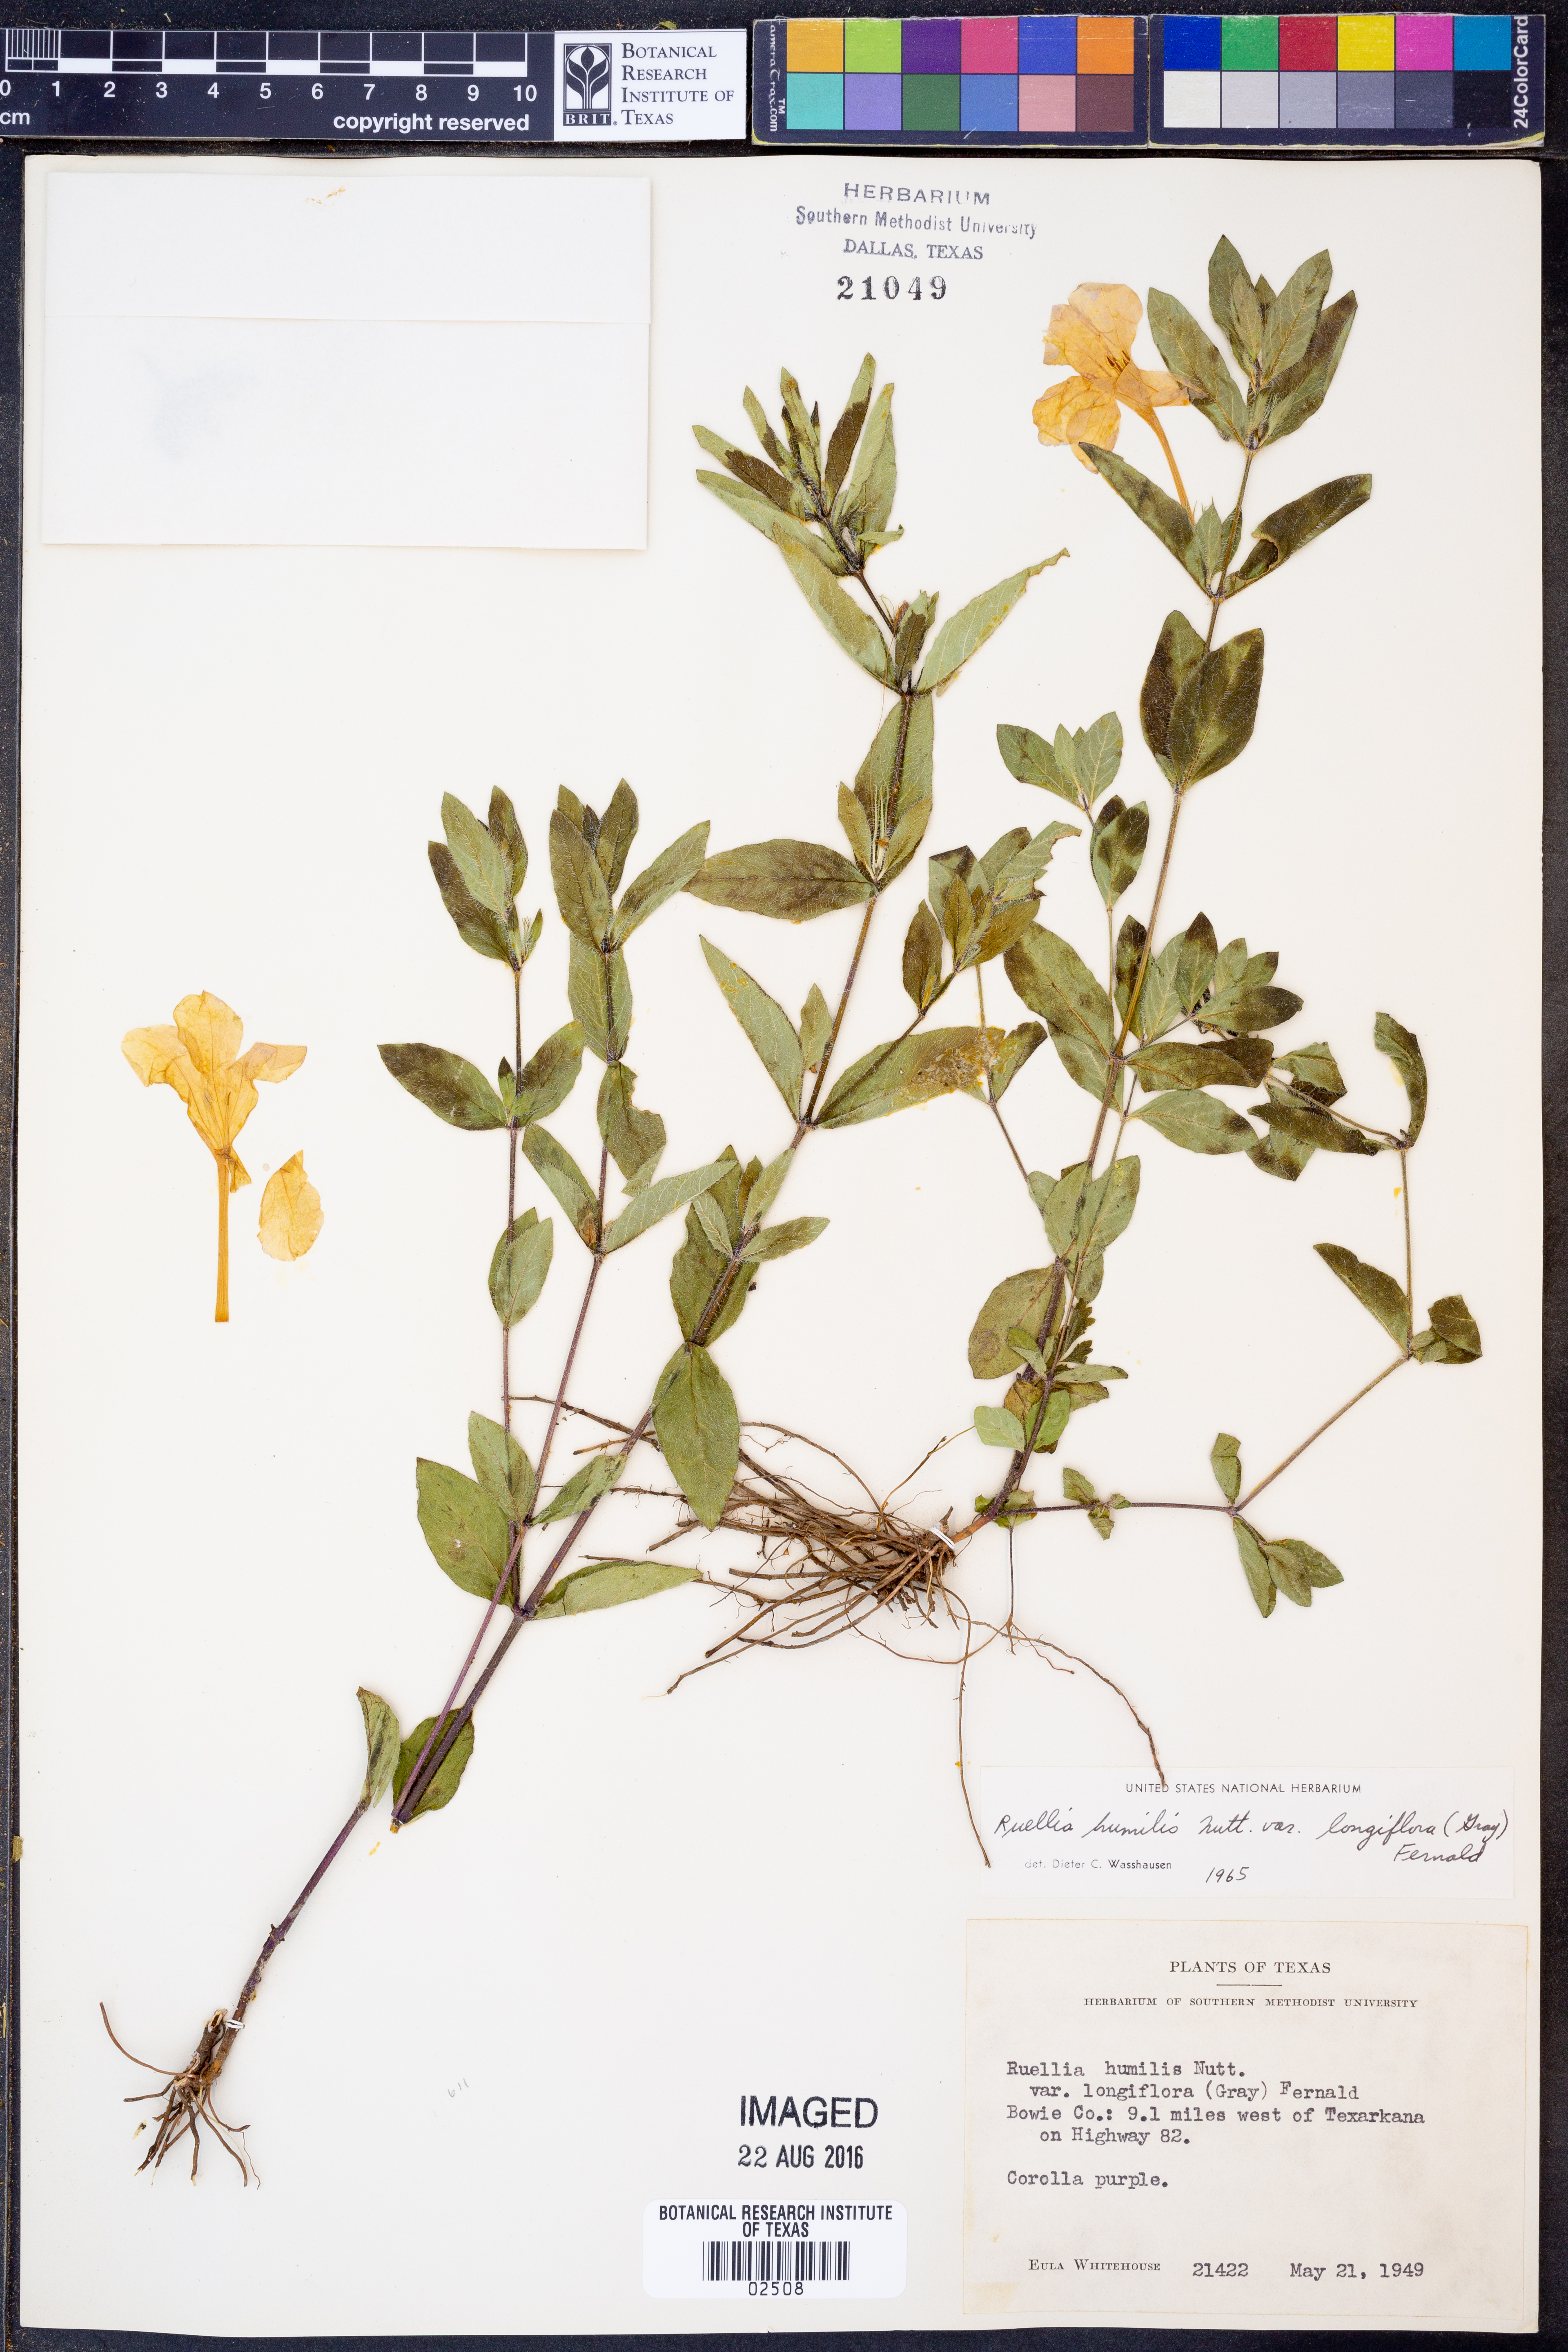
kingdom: Plantae
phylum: Tracheophyta
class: Magnoliopsida
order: Lamiales
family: Acanthaceae
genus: Ruellia
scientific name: Ruellia humilis
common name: Fringe-leaf ruellia
